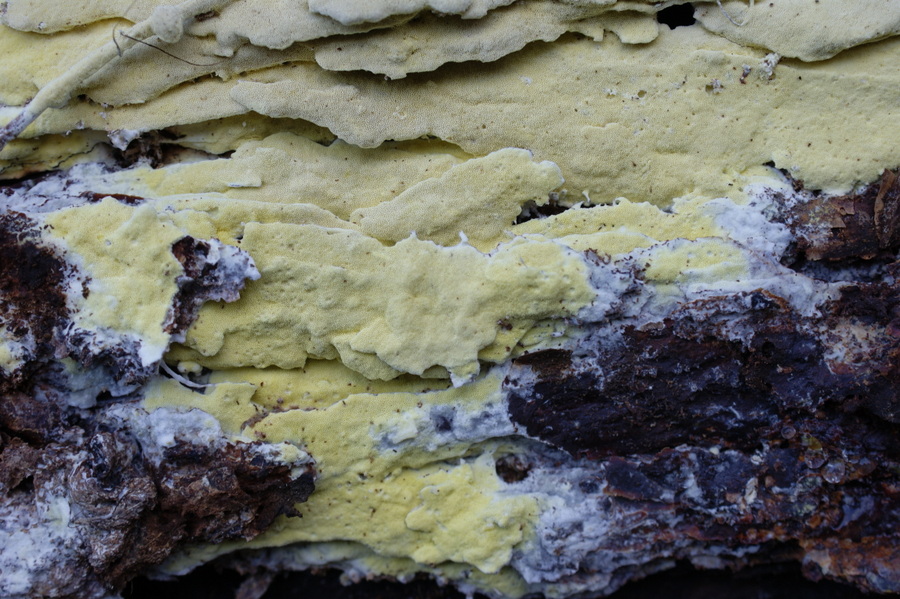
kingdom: Fungi
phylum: Basidiomycota
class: Agaricomycetes
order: Polyporales
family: Fomitopsidaceae
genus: Daedalea
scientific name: Daedalea xantha
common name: gul sejporesvamp
